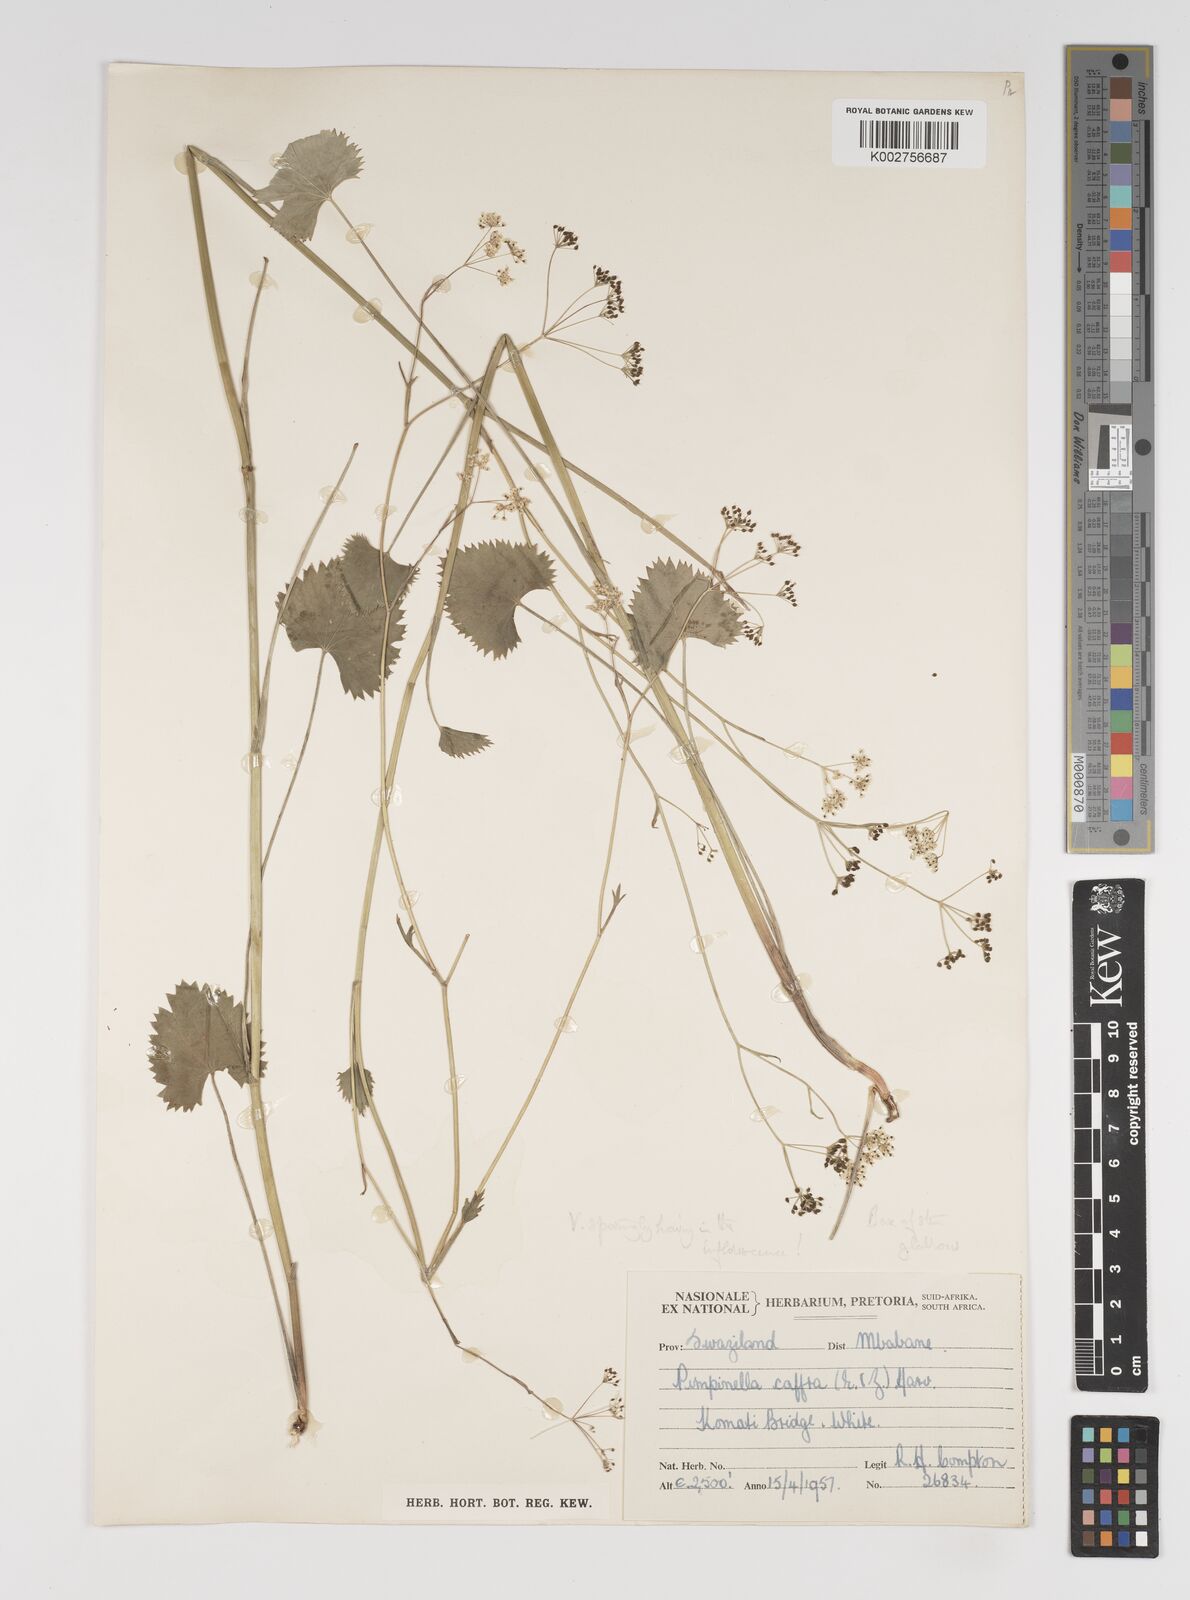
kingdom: Plantae
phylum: Tracheophyta
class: Magnoliopsida
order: Apiales
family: Apiaceae
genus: Pimpinella
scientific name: Pimpinella
